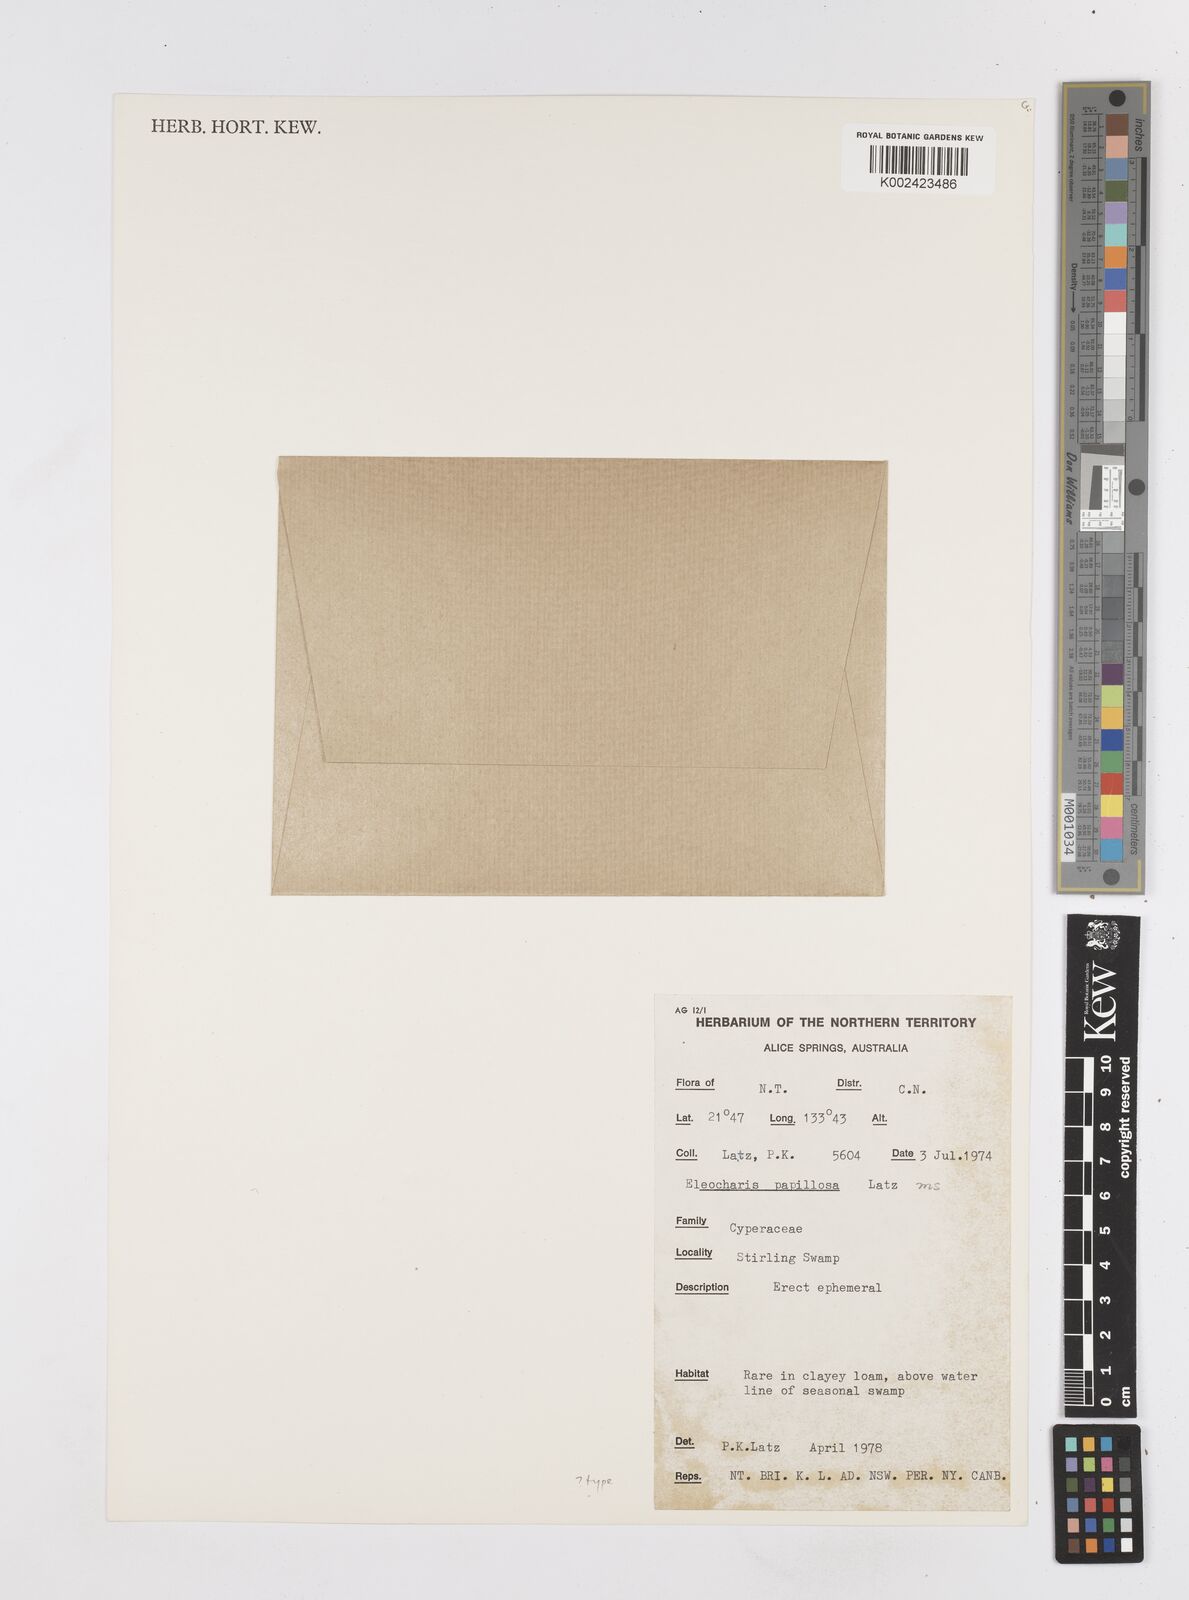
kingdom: Plantae
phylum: Tracheophyta
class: Liliopsida
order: Poales
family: Cyperaceae
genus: Eleocharis
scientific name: Eleocharis papillosa
